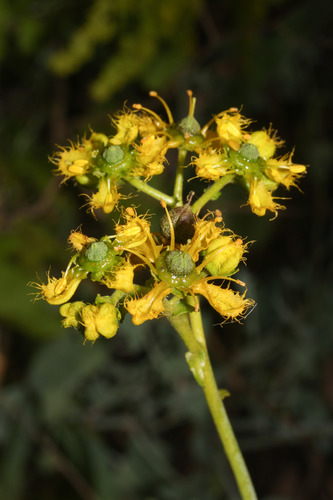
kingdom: Plantae
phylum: Tracheophyta
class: Magnoliopsida
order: Sapindales
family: Rutaceae
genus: Ruta
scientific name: Ruta angustifolia
